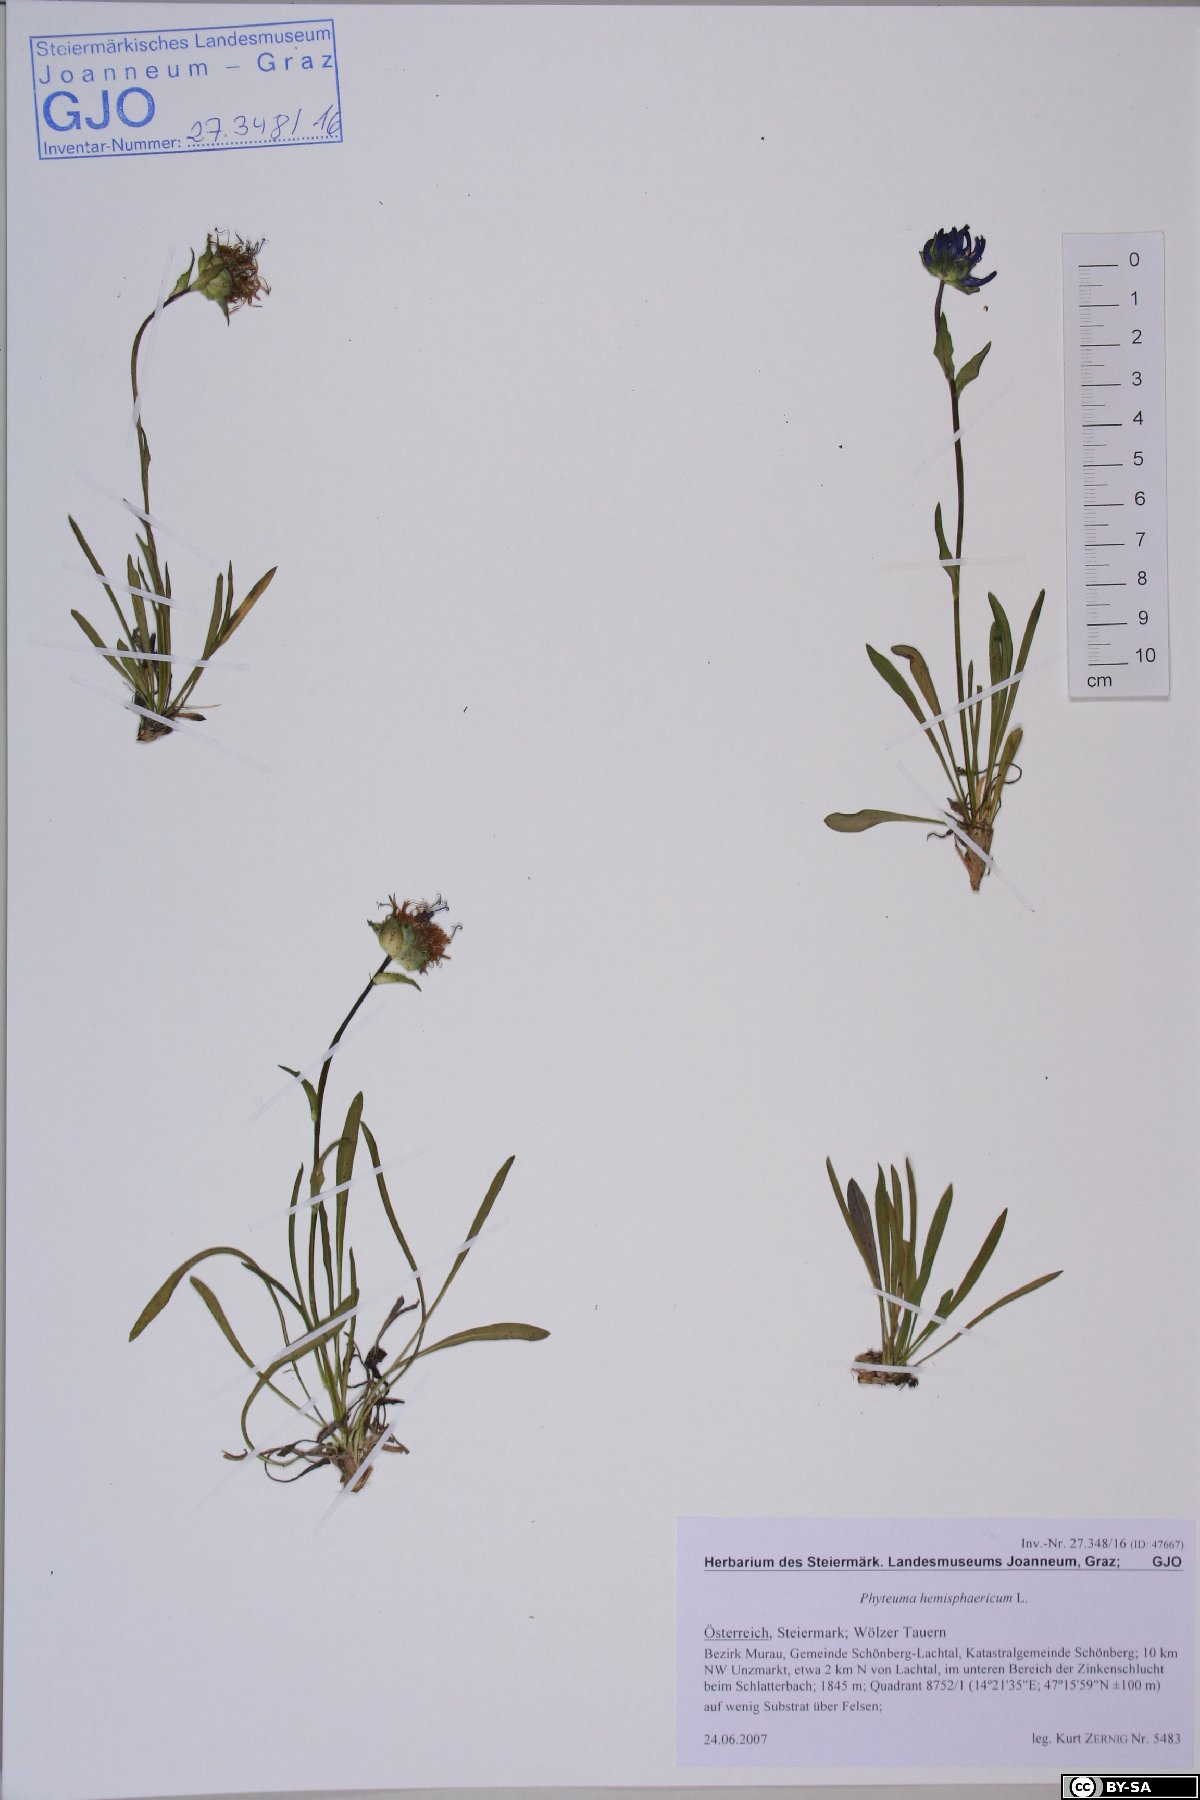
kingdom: Plantae
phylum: Tracheophyta
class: Magnoliopsida
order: Asterales
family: Campanulaceae
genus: Phyteuma
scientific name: Phyteuma confusum
